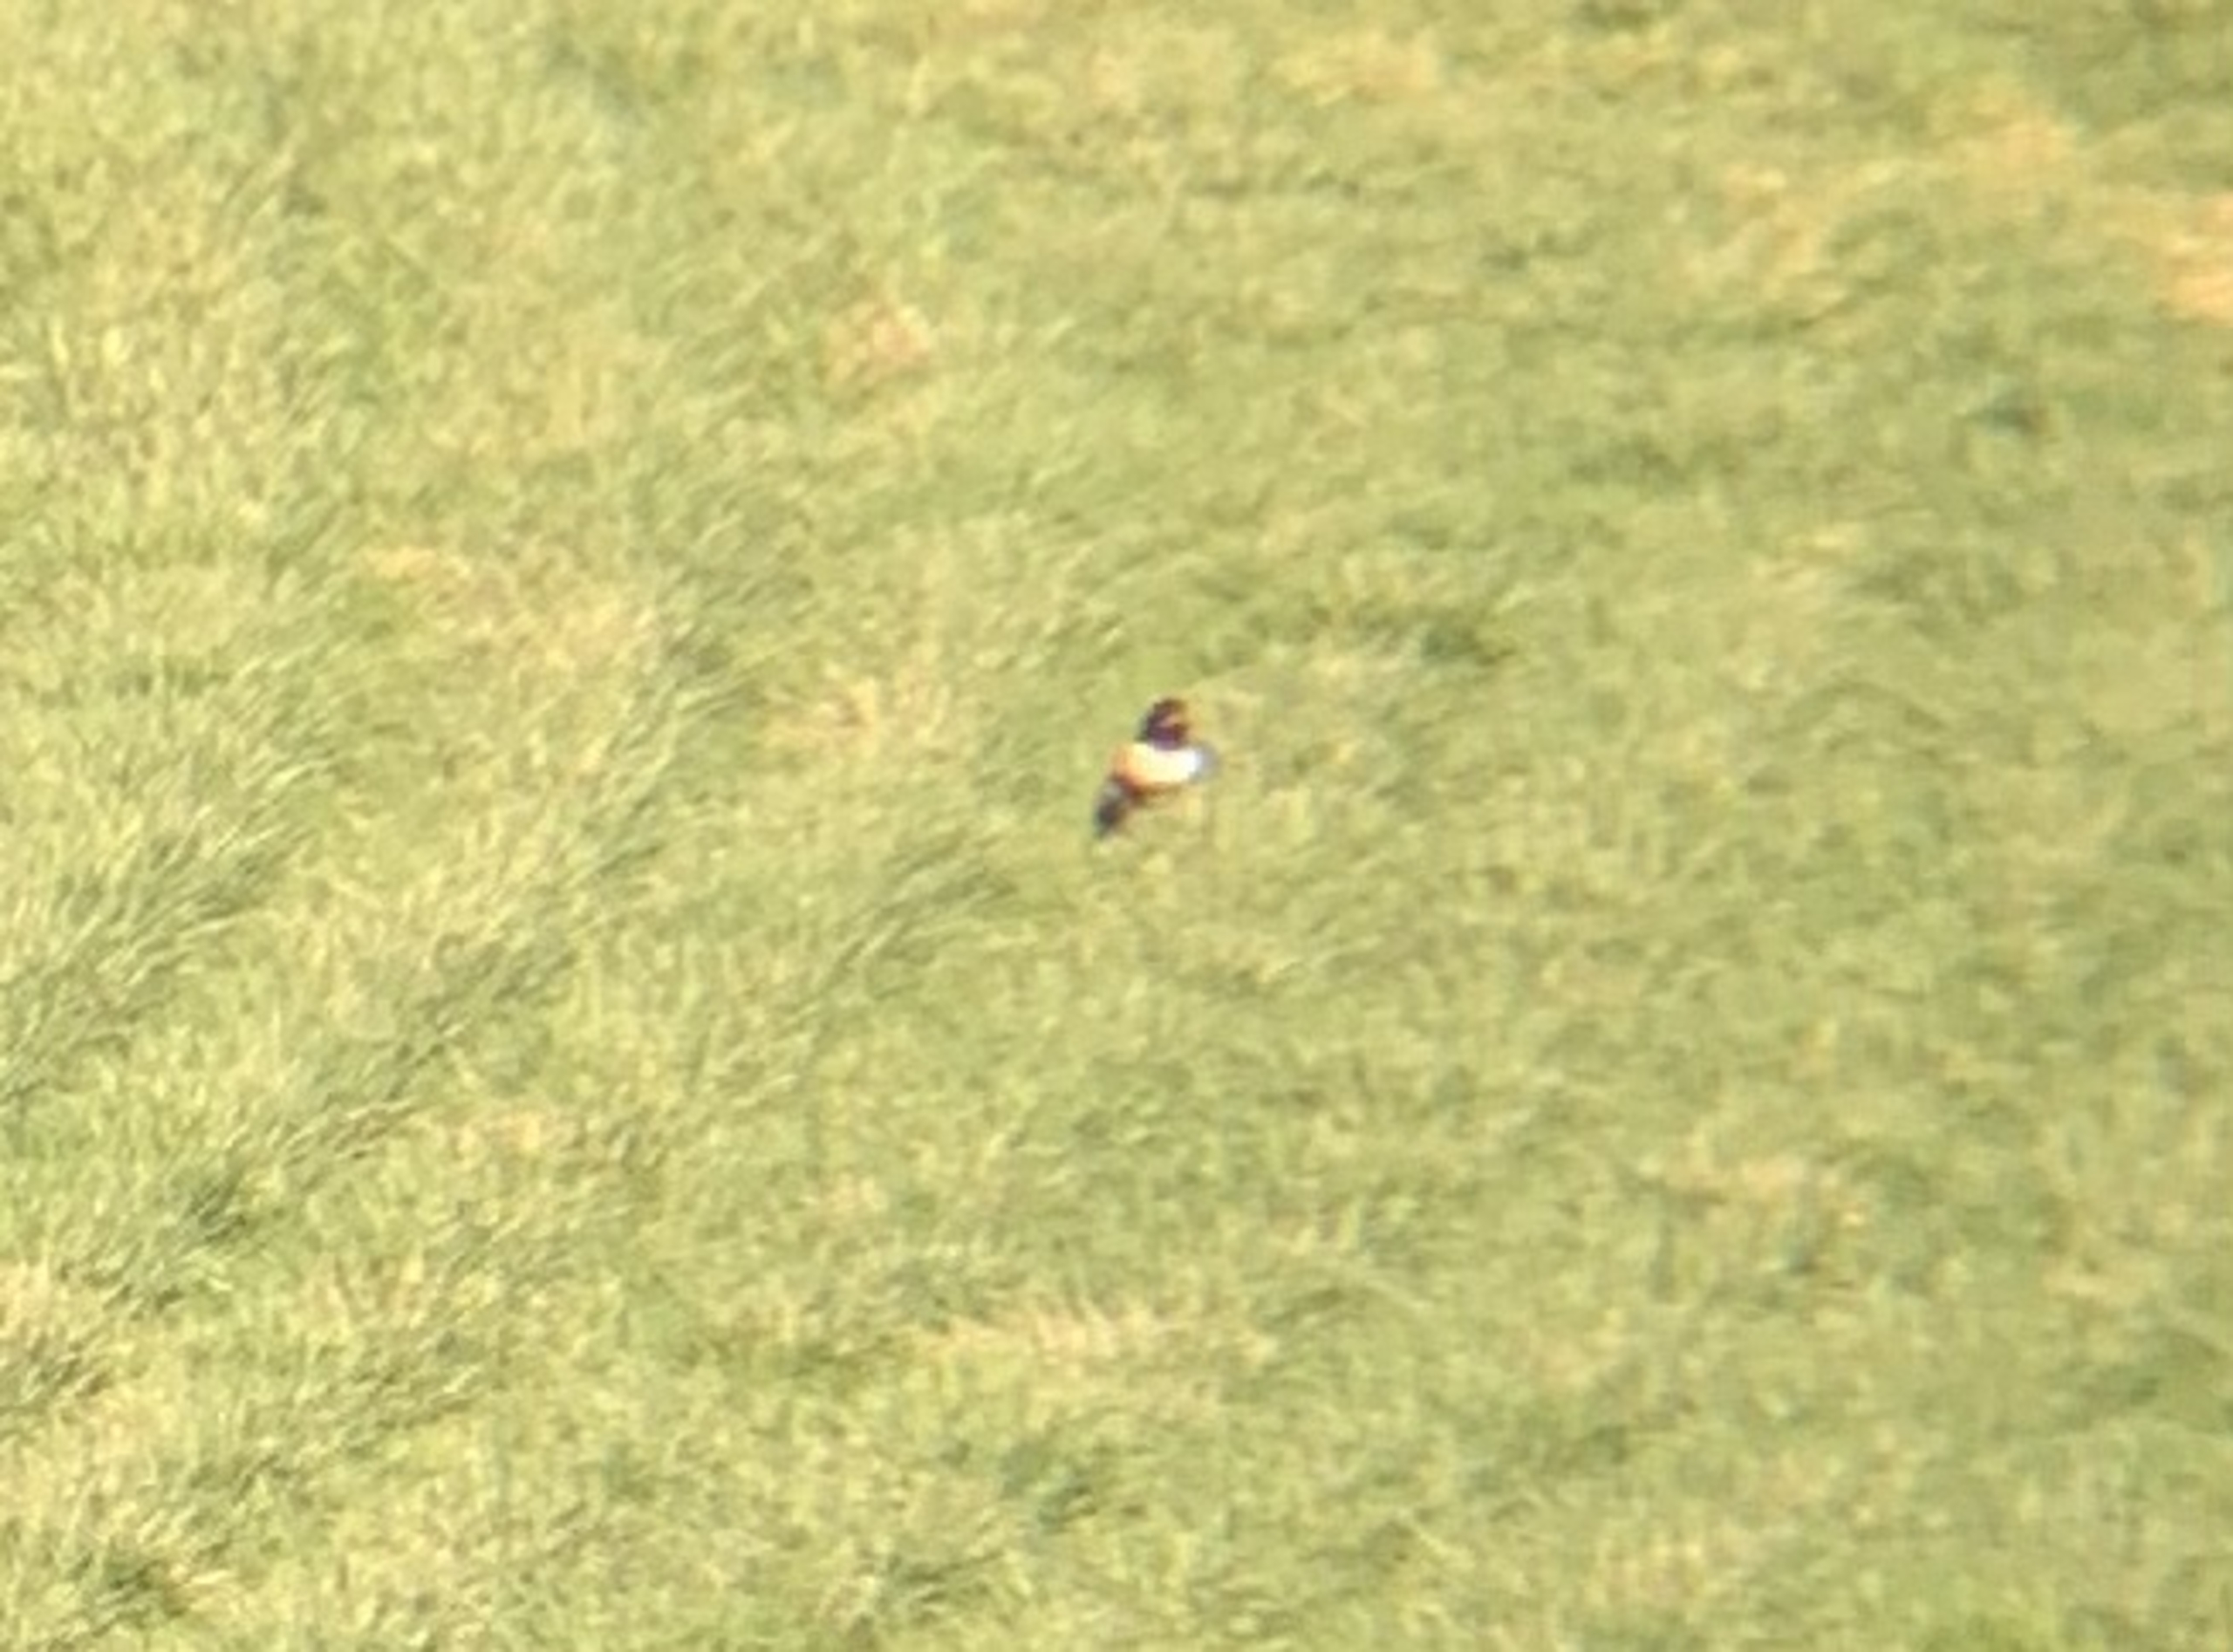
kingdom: Animalia
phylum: Chordata
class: Aves
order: Passeriformes
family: Turdidae
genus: Turdus
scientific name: Turdus torquatus
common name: Ringdrossel
